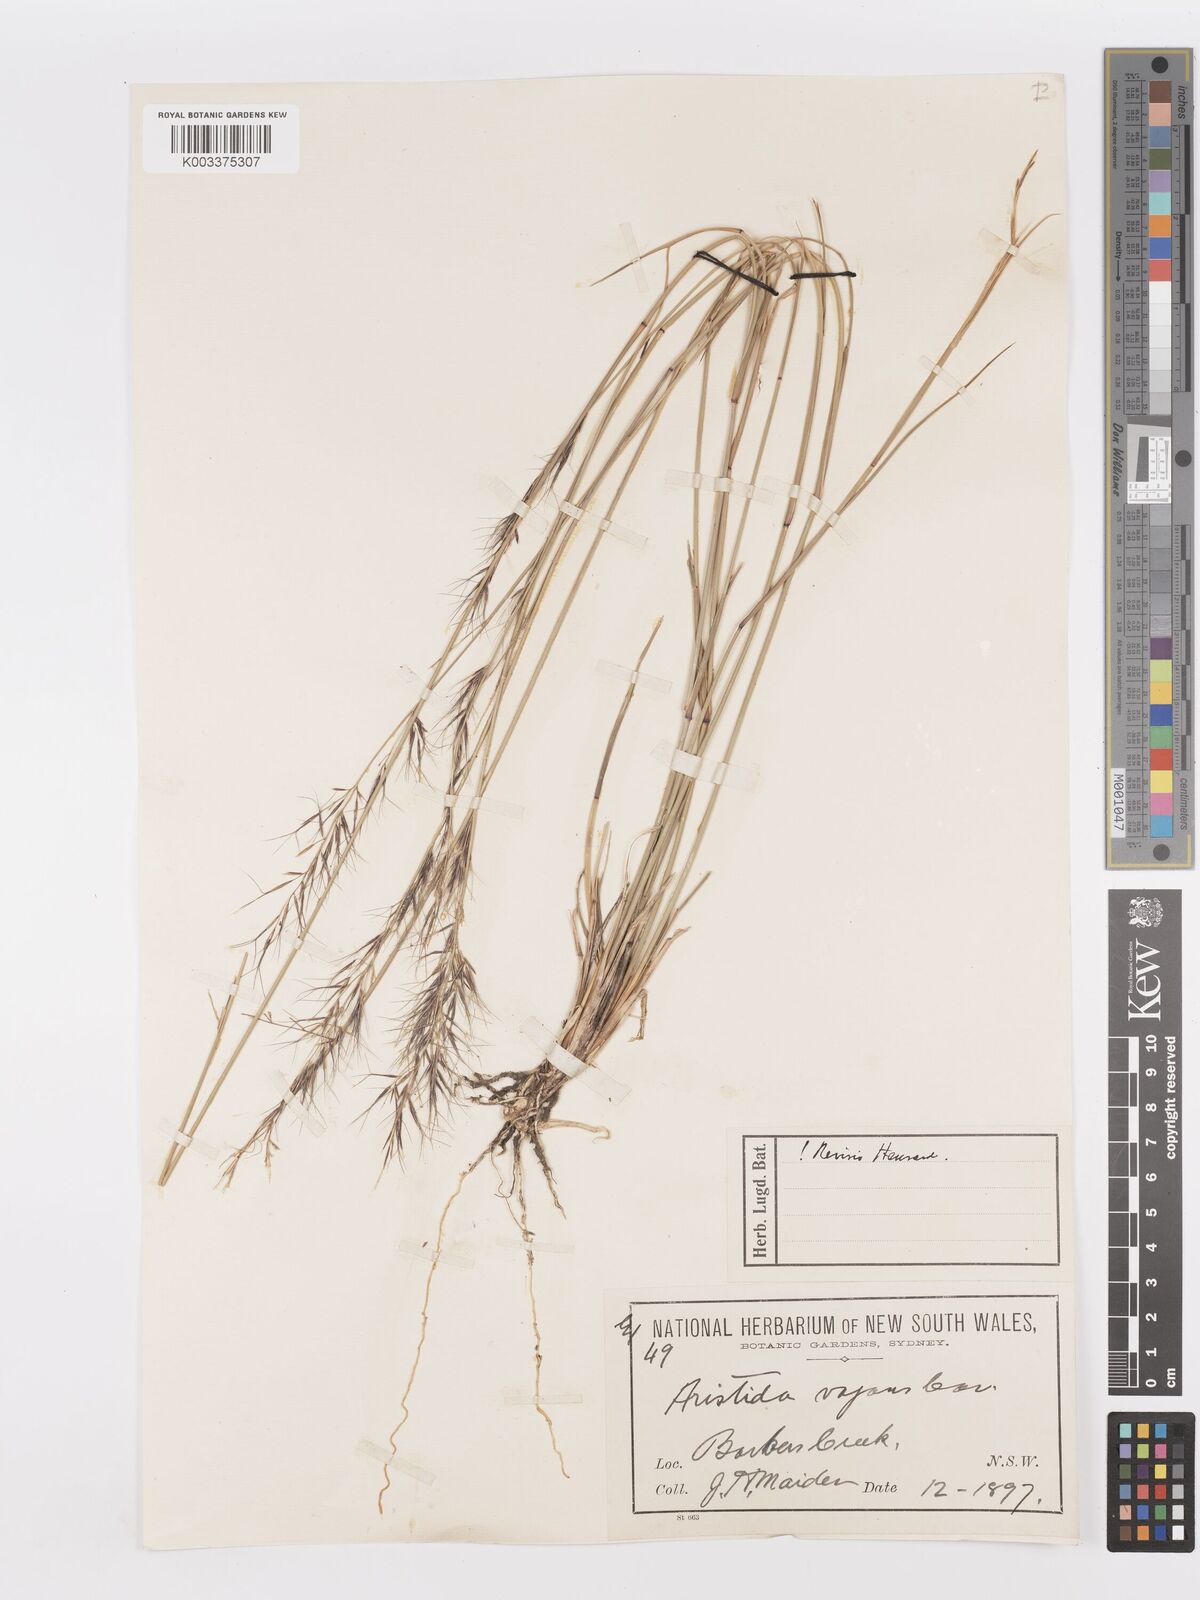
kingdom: Plantae
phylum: Tracheophyta
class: Liliopsida
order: Poales
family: Poaceae
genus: Aristida
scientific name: Aristida vagans
